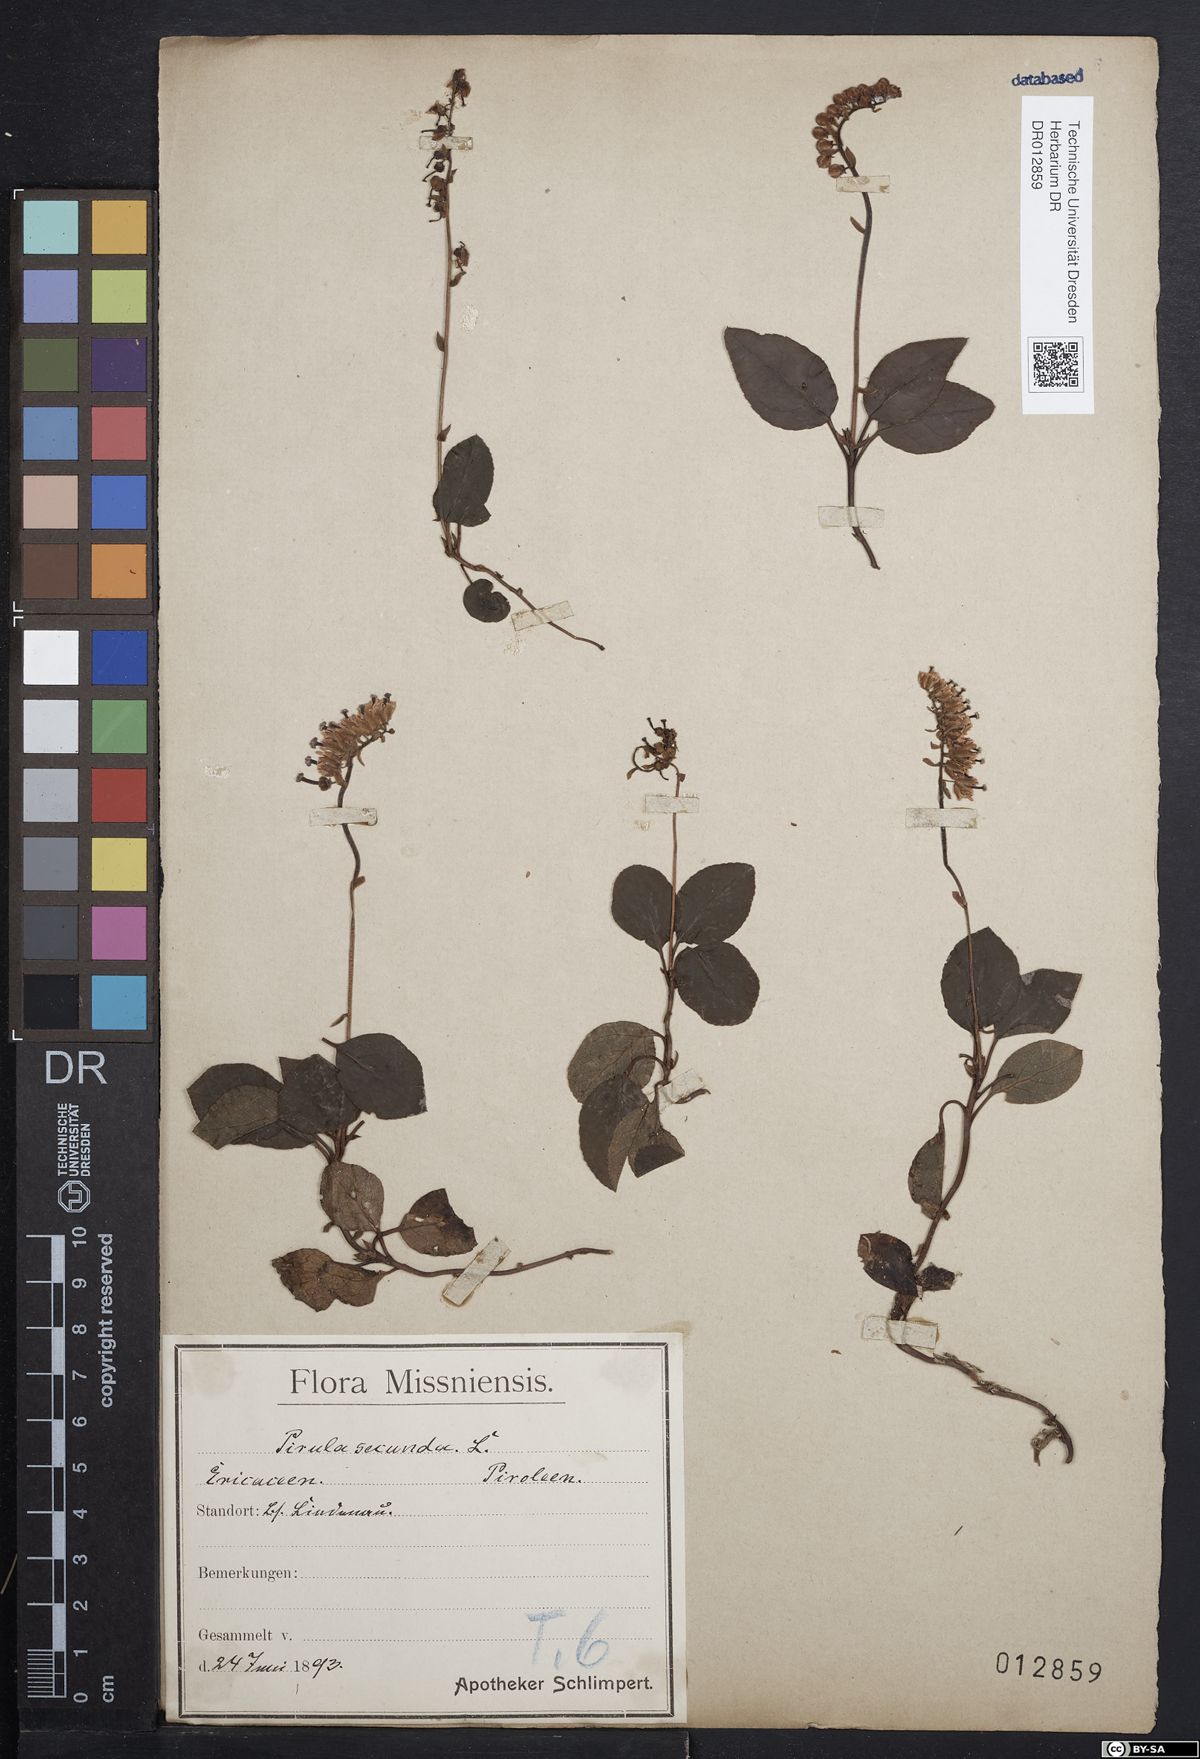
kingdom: Plantae
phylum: Tracheophyta
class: Magnoliopsida
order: Ericales
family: Ericaceae
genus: Orthilia
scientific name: Orthilia secunda
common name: One-sided orthilia
